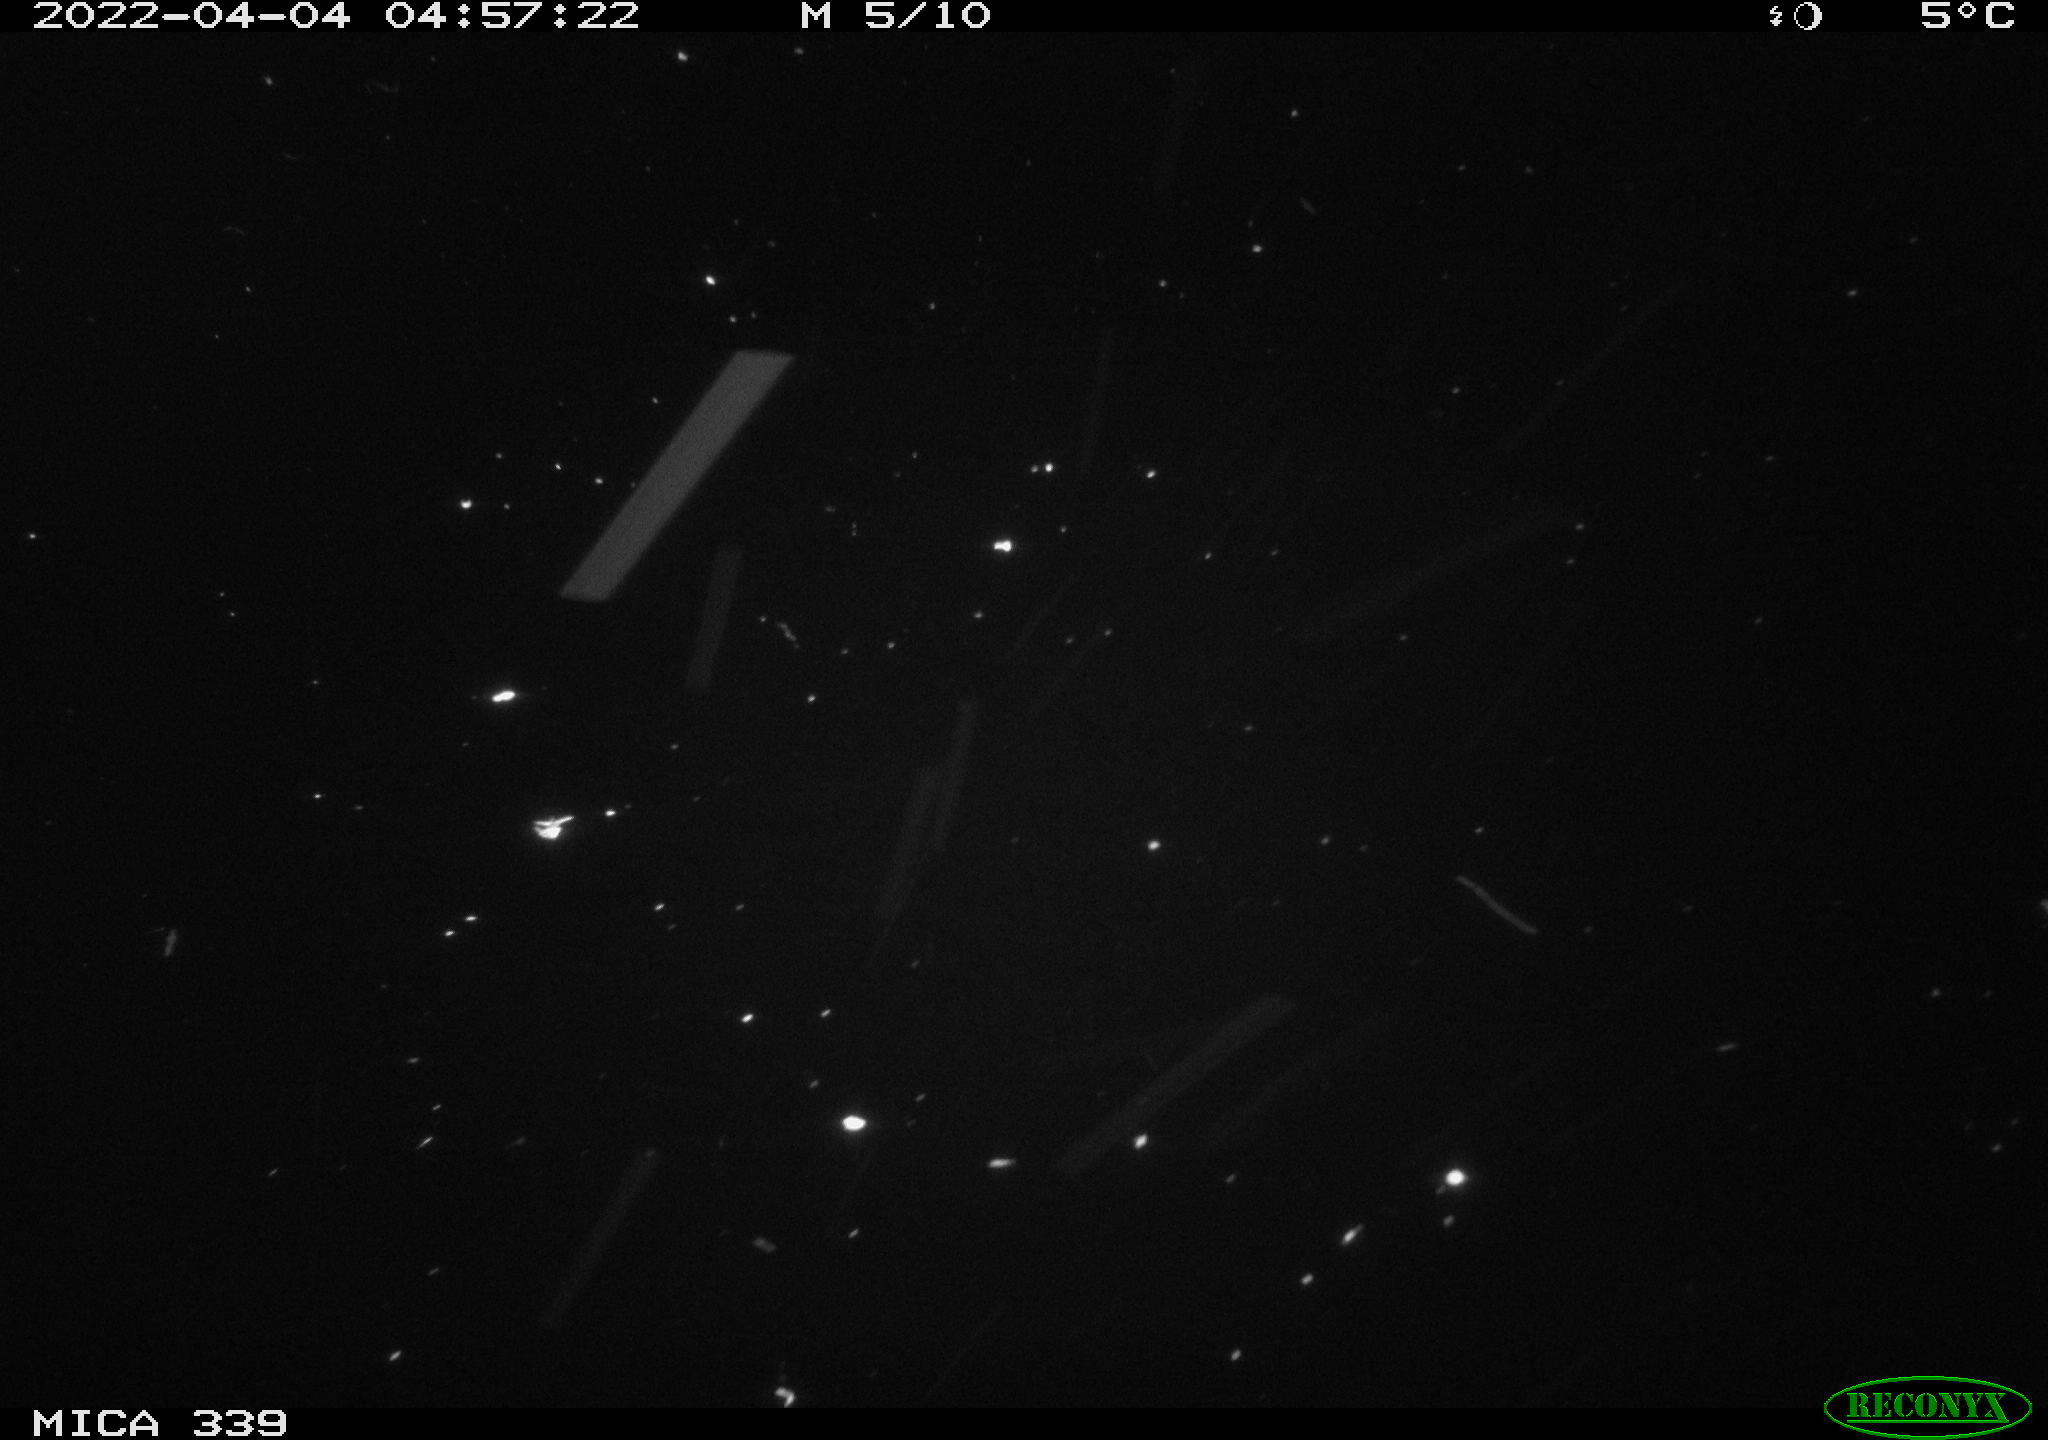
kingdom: Animalia
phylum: Chordata
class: Mammalia
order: Rodentia
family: Muridae
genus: Rattus
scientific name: Rattus norvegicus
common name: Brown rat
